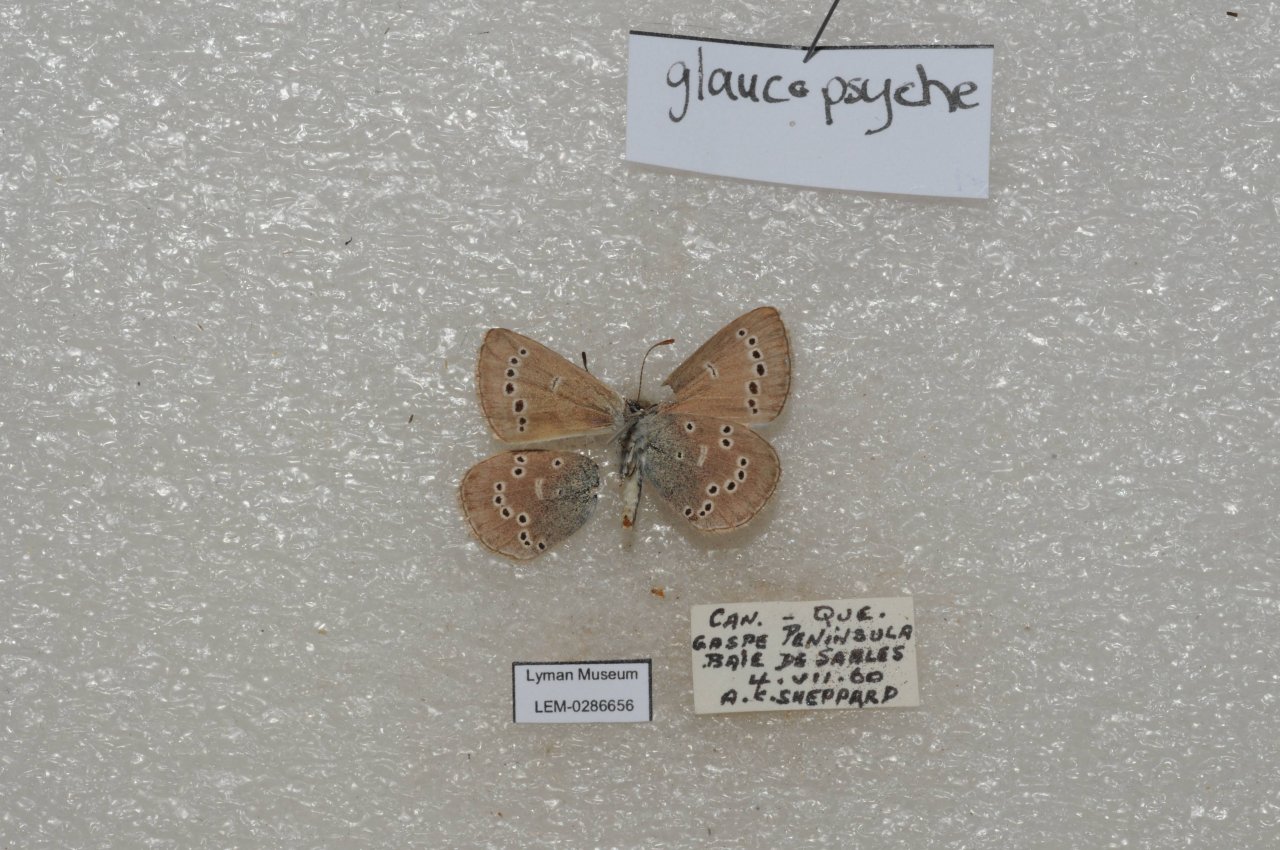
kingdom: Animalia
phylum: Arthropoda
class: Insecta
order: Lepidoptera
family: Lycaenidae
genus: Glaucopsyche
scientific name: Glaucopsyche lygdamus
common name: Silvery Blue
